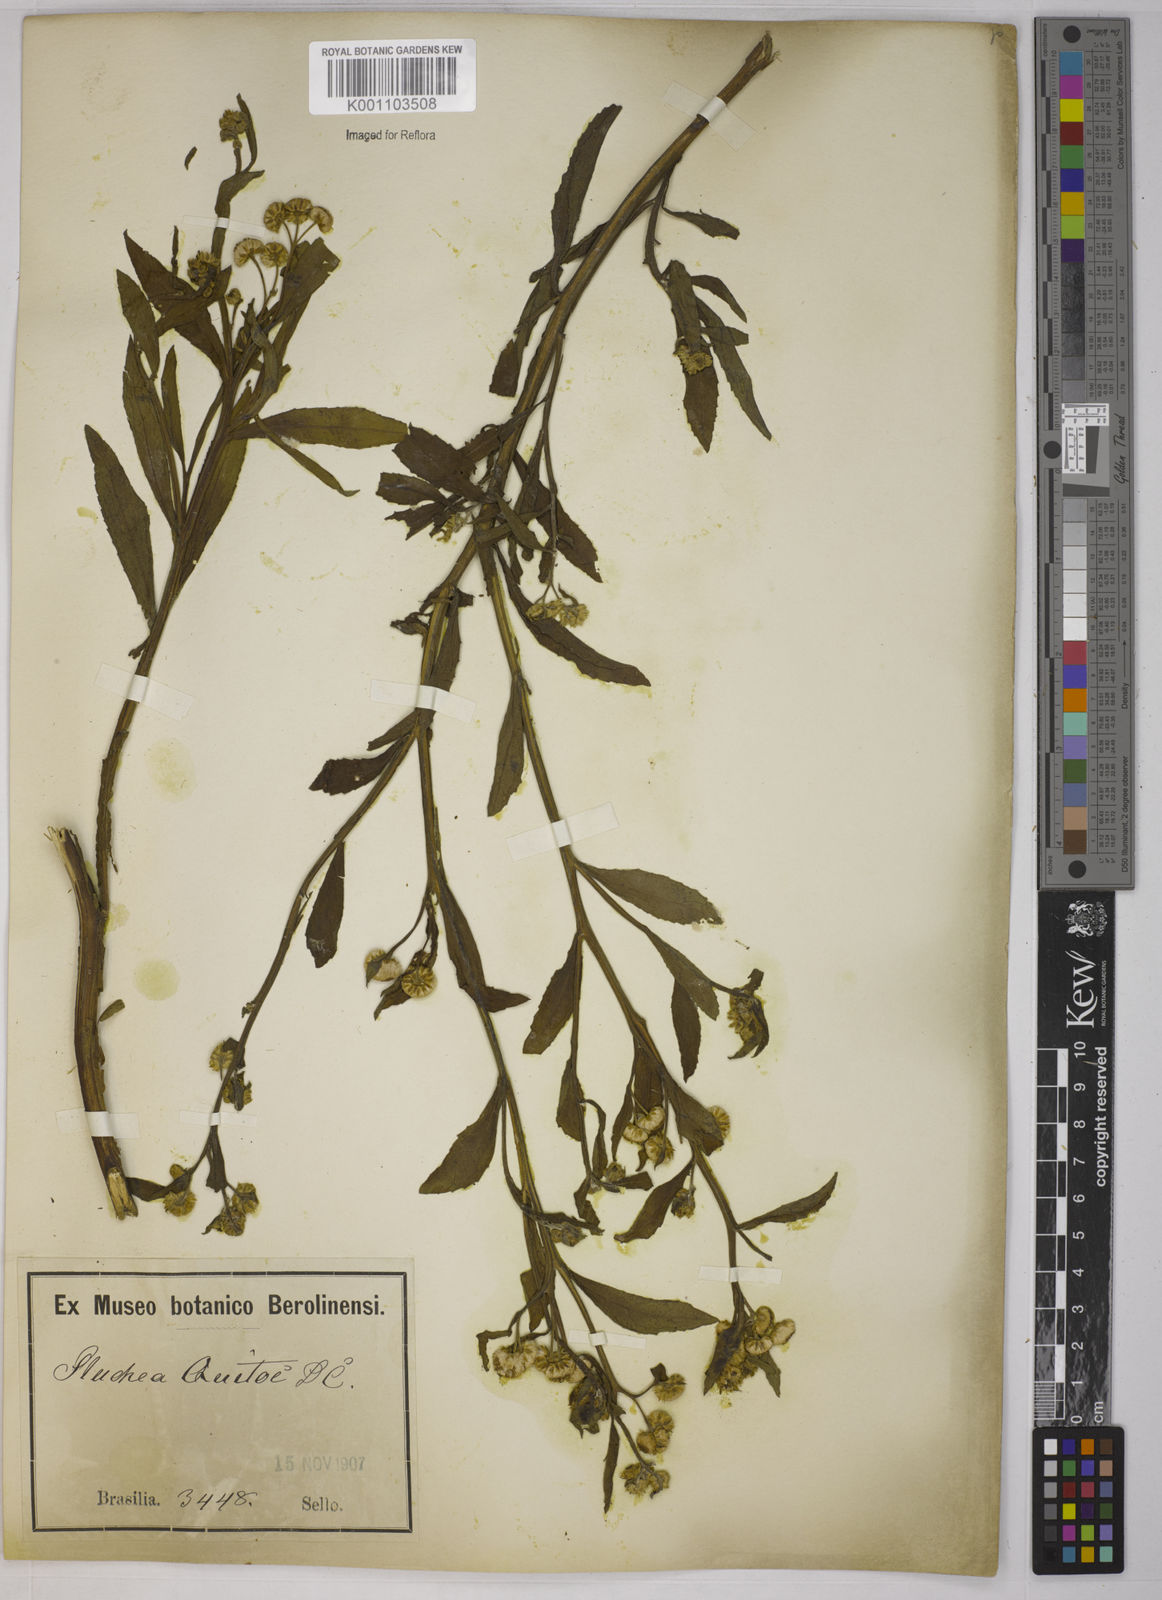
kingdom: Plantae
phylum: Tracheophyta
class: Magnoliopsida
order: Asterales
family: Asteraceae
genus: Pluchea
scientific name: Pluchea sagittalis
